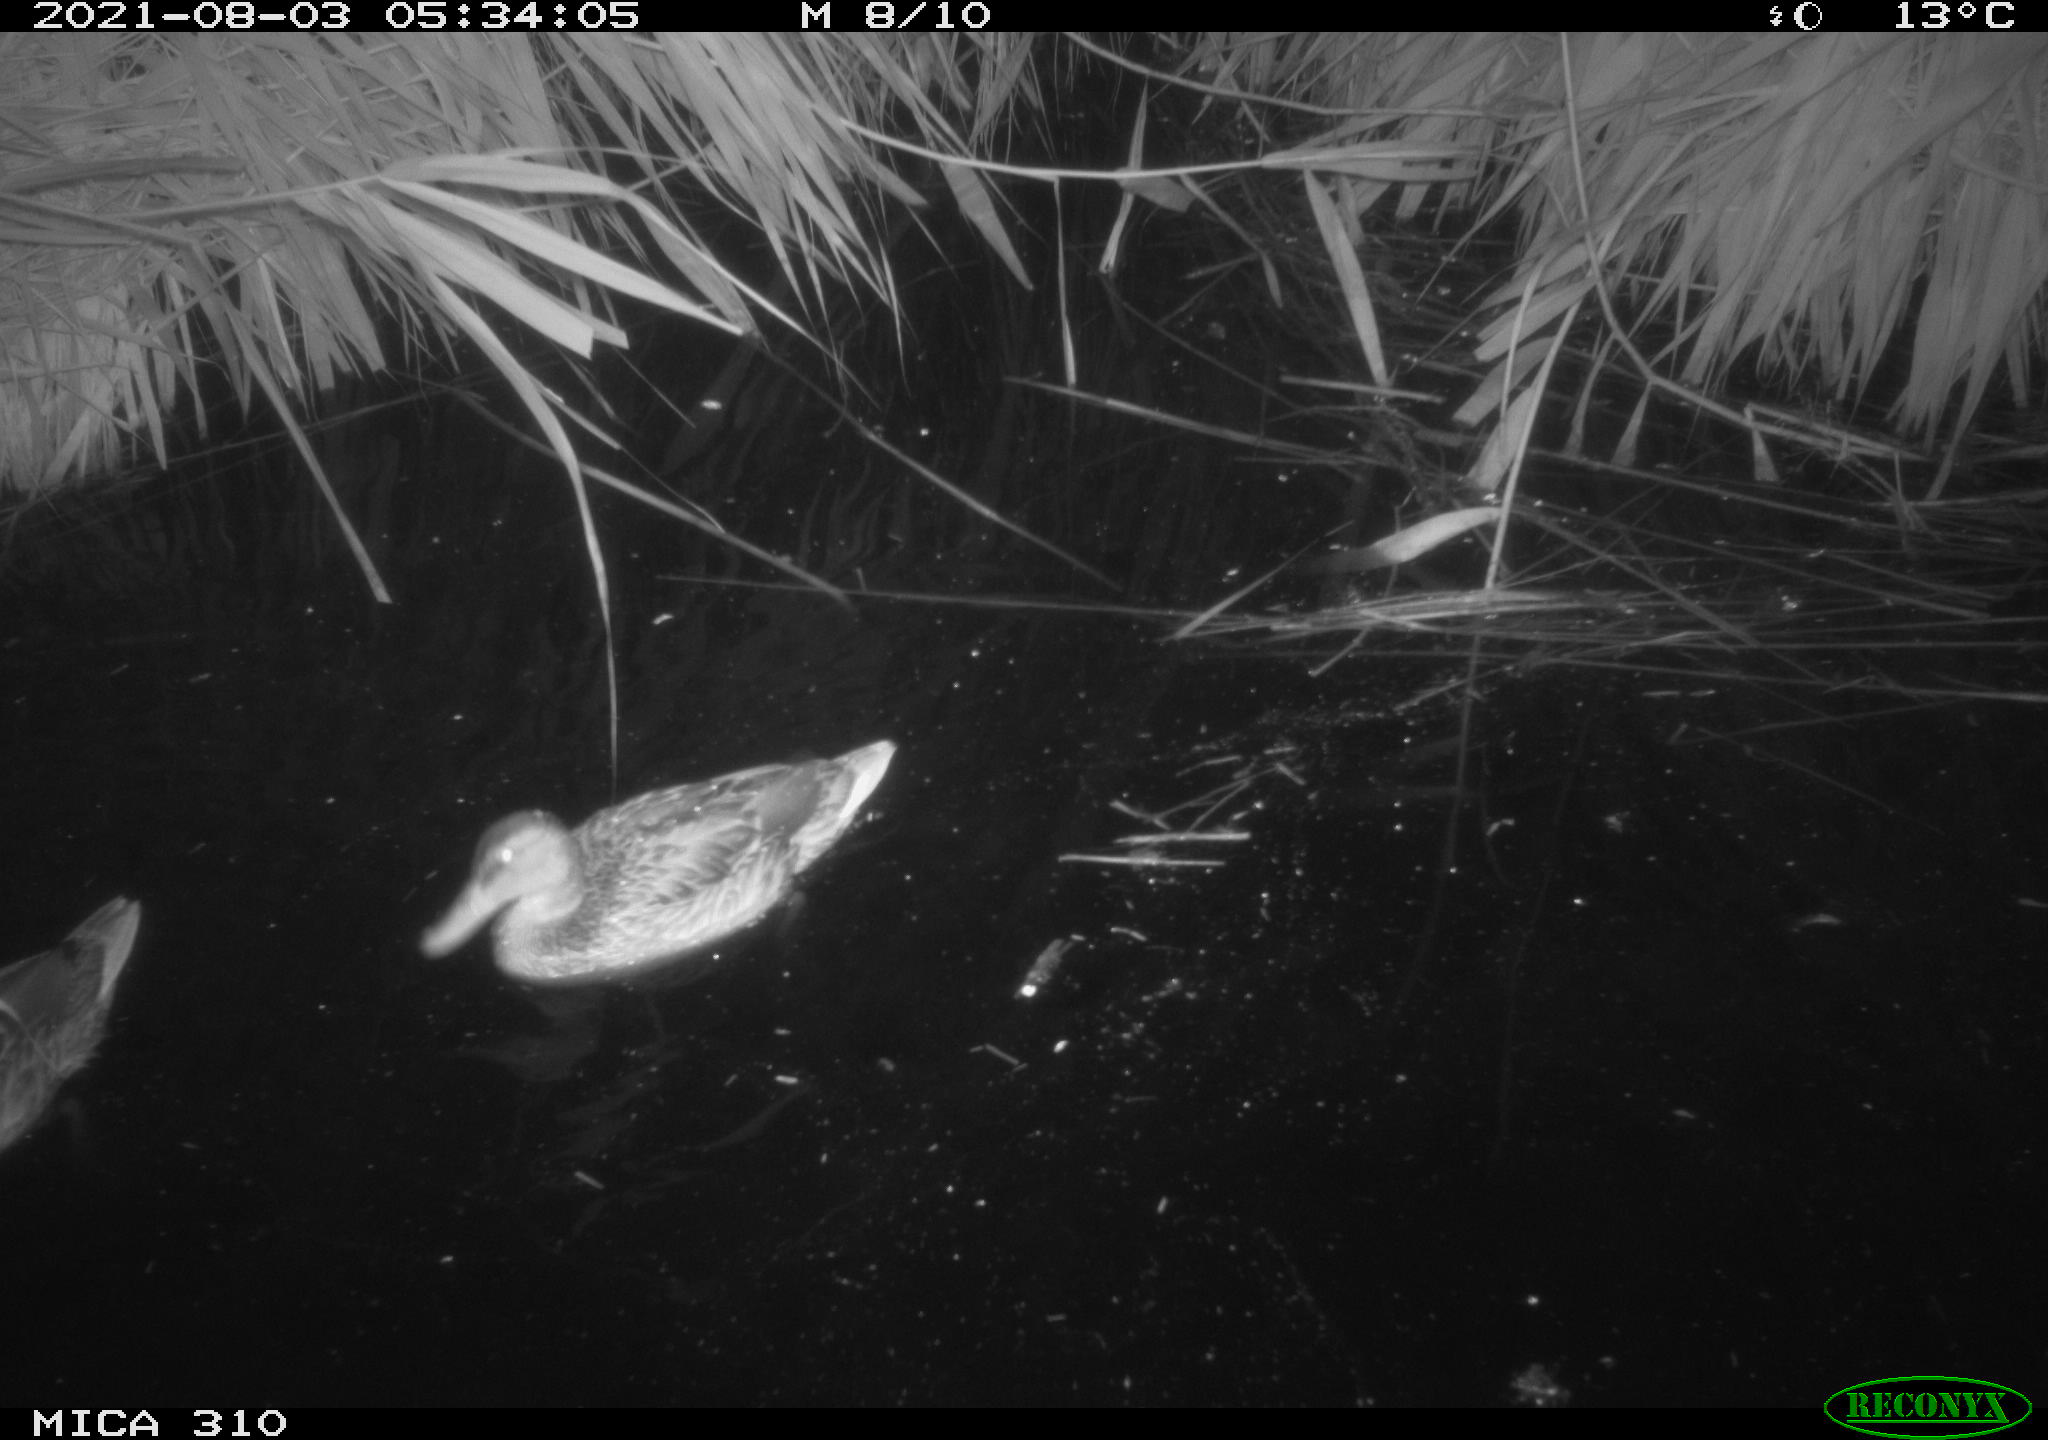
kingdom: Animalia
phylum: Chordata
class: Aves
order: Anseriformes
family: Anatidae
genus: Mareca
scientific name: Mareca strepera
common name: Gadwall
